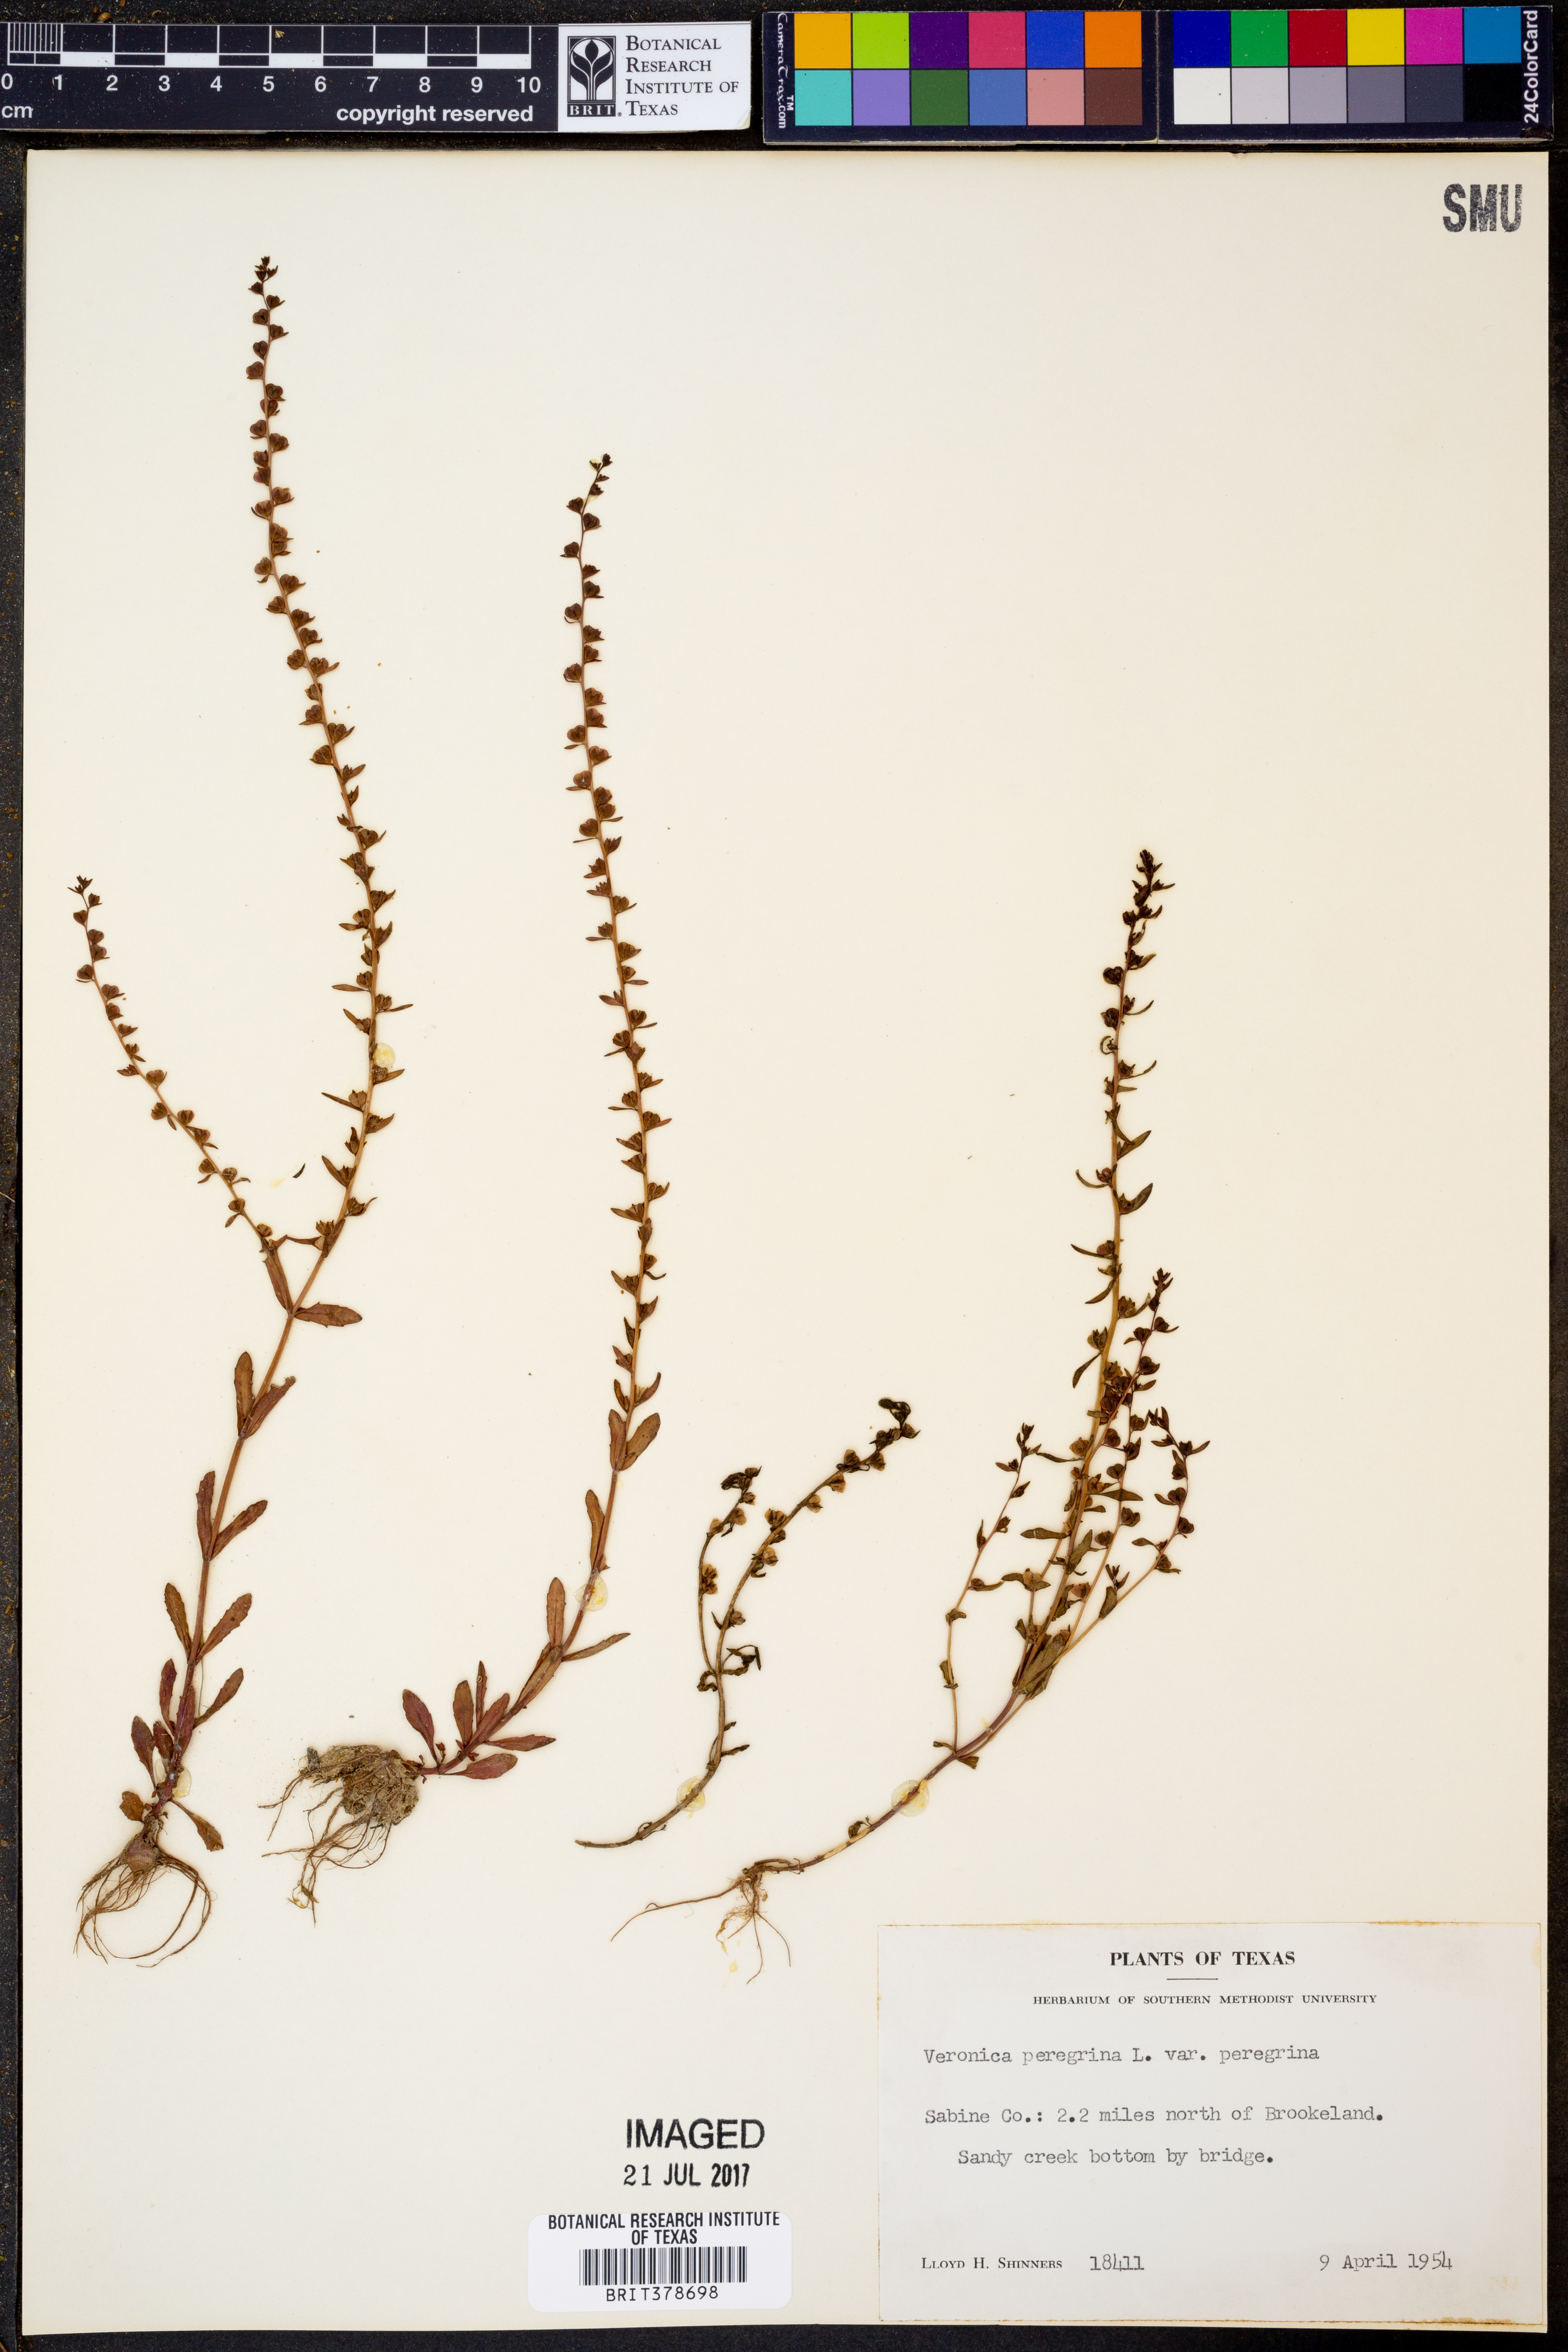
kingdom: Plantae
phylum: Tracheophyta
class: Magnoliopsida
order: Lamiales
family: Plantaginaceae
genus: Veronica
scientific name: Veronica peregrina
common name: Neckweed
